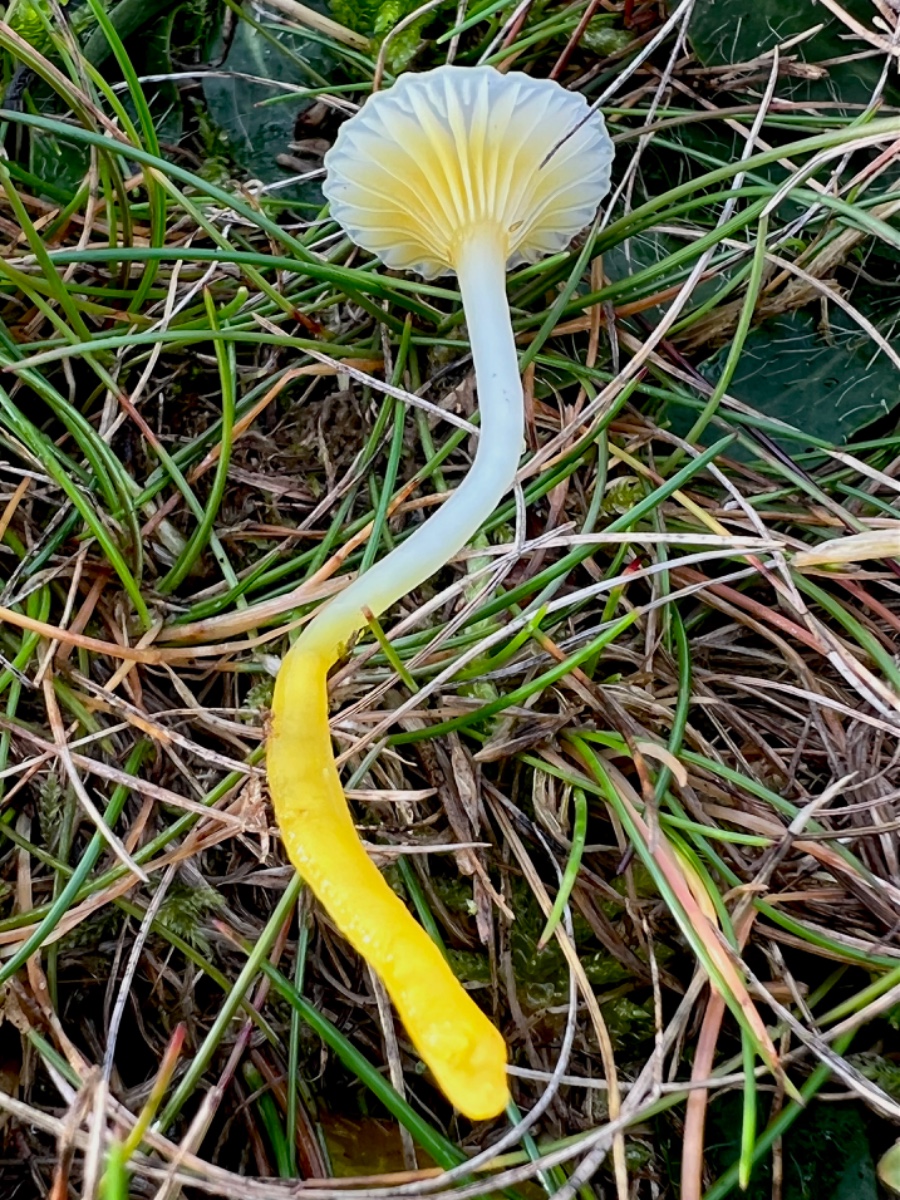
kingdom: Fungi
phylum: Basidiomycota
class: Agaricomycetes
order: Agaricales
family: Hygrophoraceae
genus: Gloioxanthomyces
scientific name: Gloioxanthomyces vitellinus
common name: kromgul vokshat
